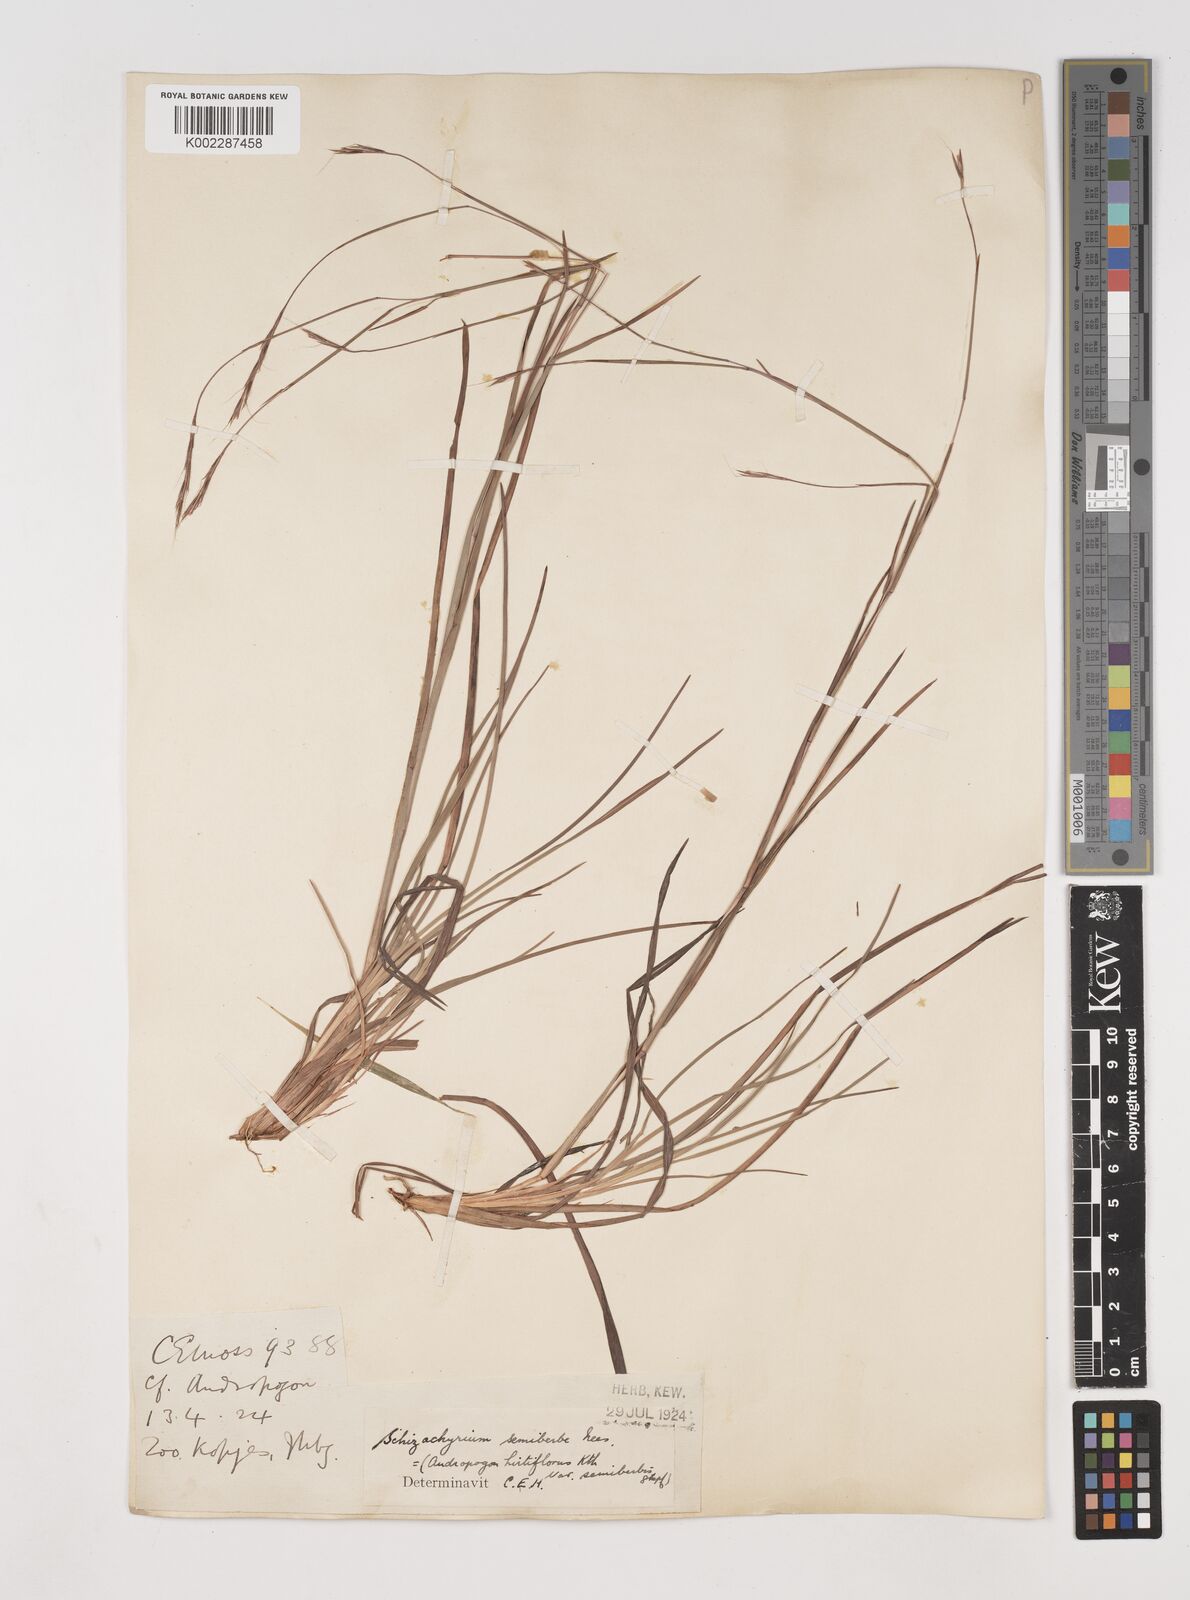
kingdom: Plantae
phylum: Tracheophyta
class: Liliopsida
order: Poales
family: Poaceae
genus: Schizachyrium
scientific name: Schizachyrium sanguineum
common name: Crimson bluestem
